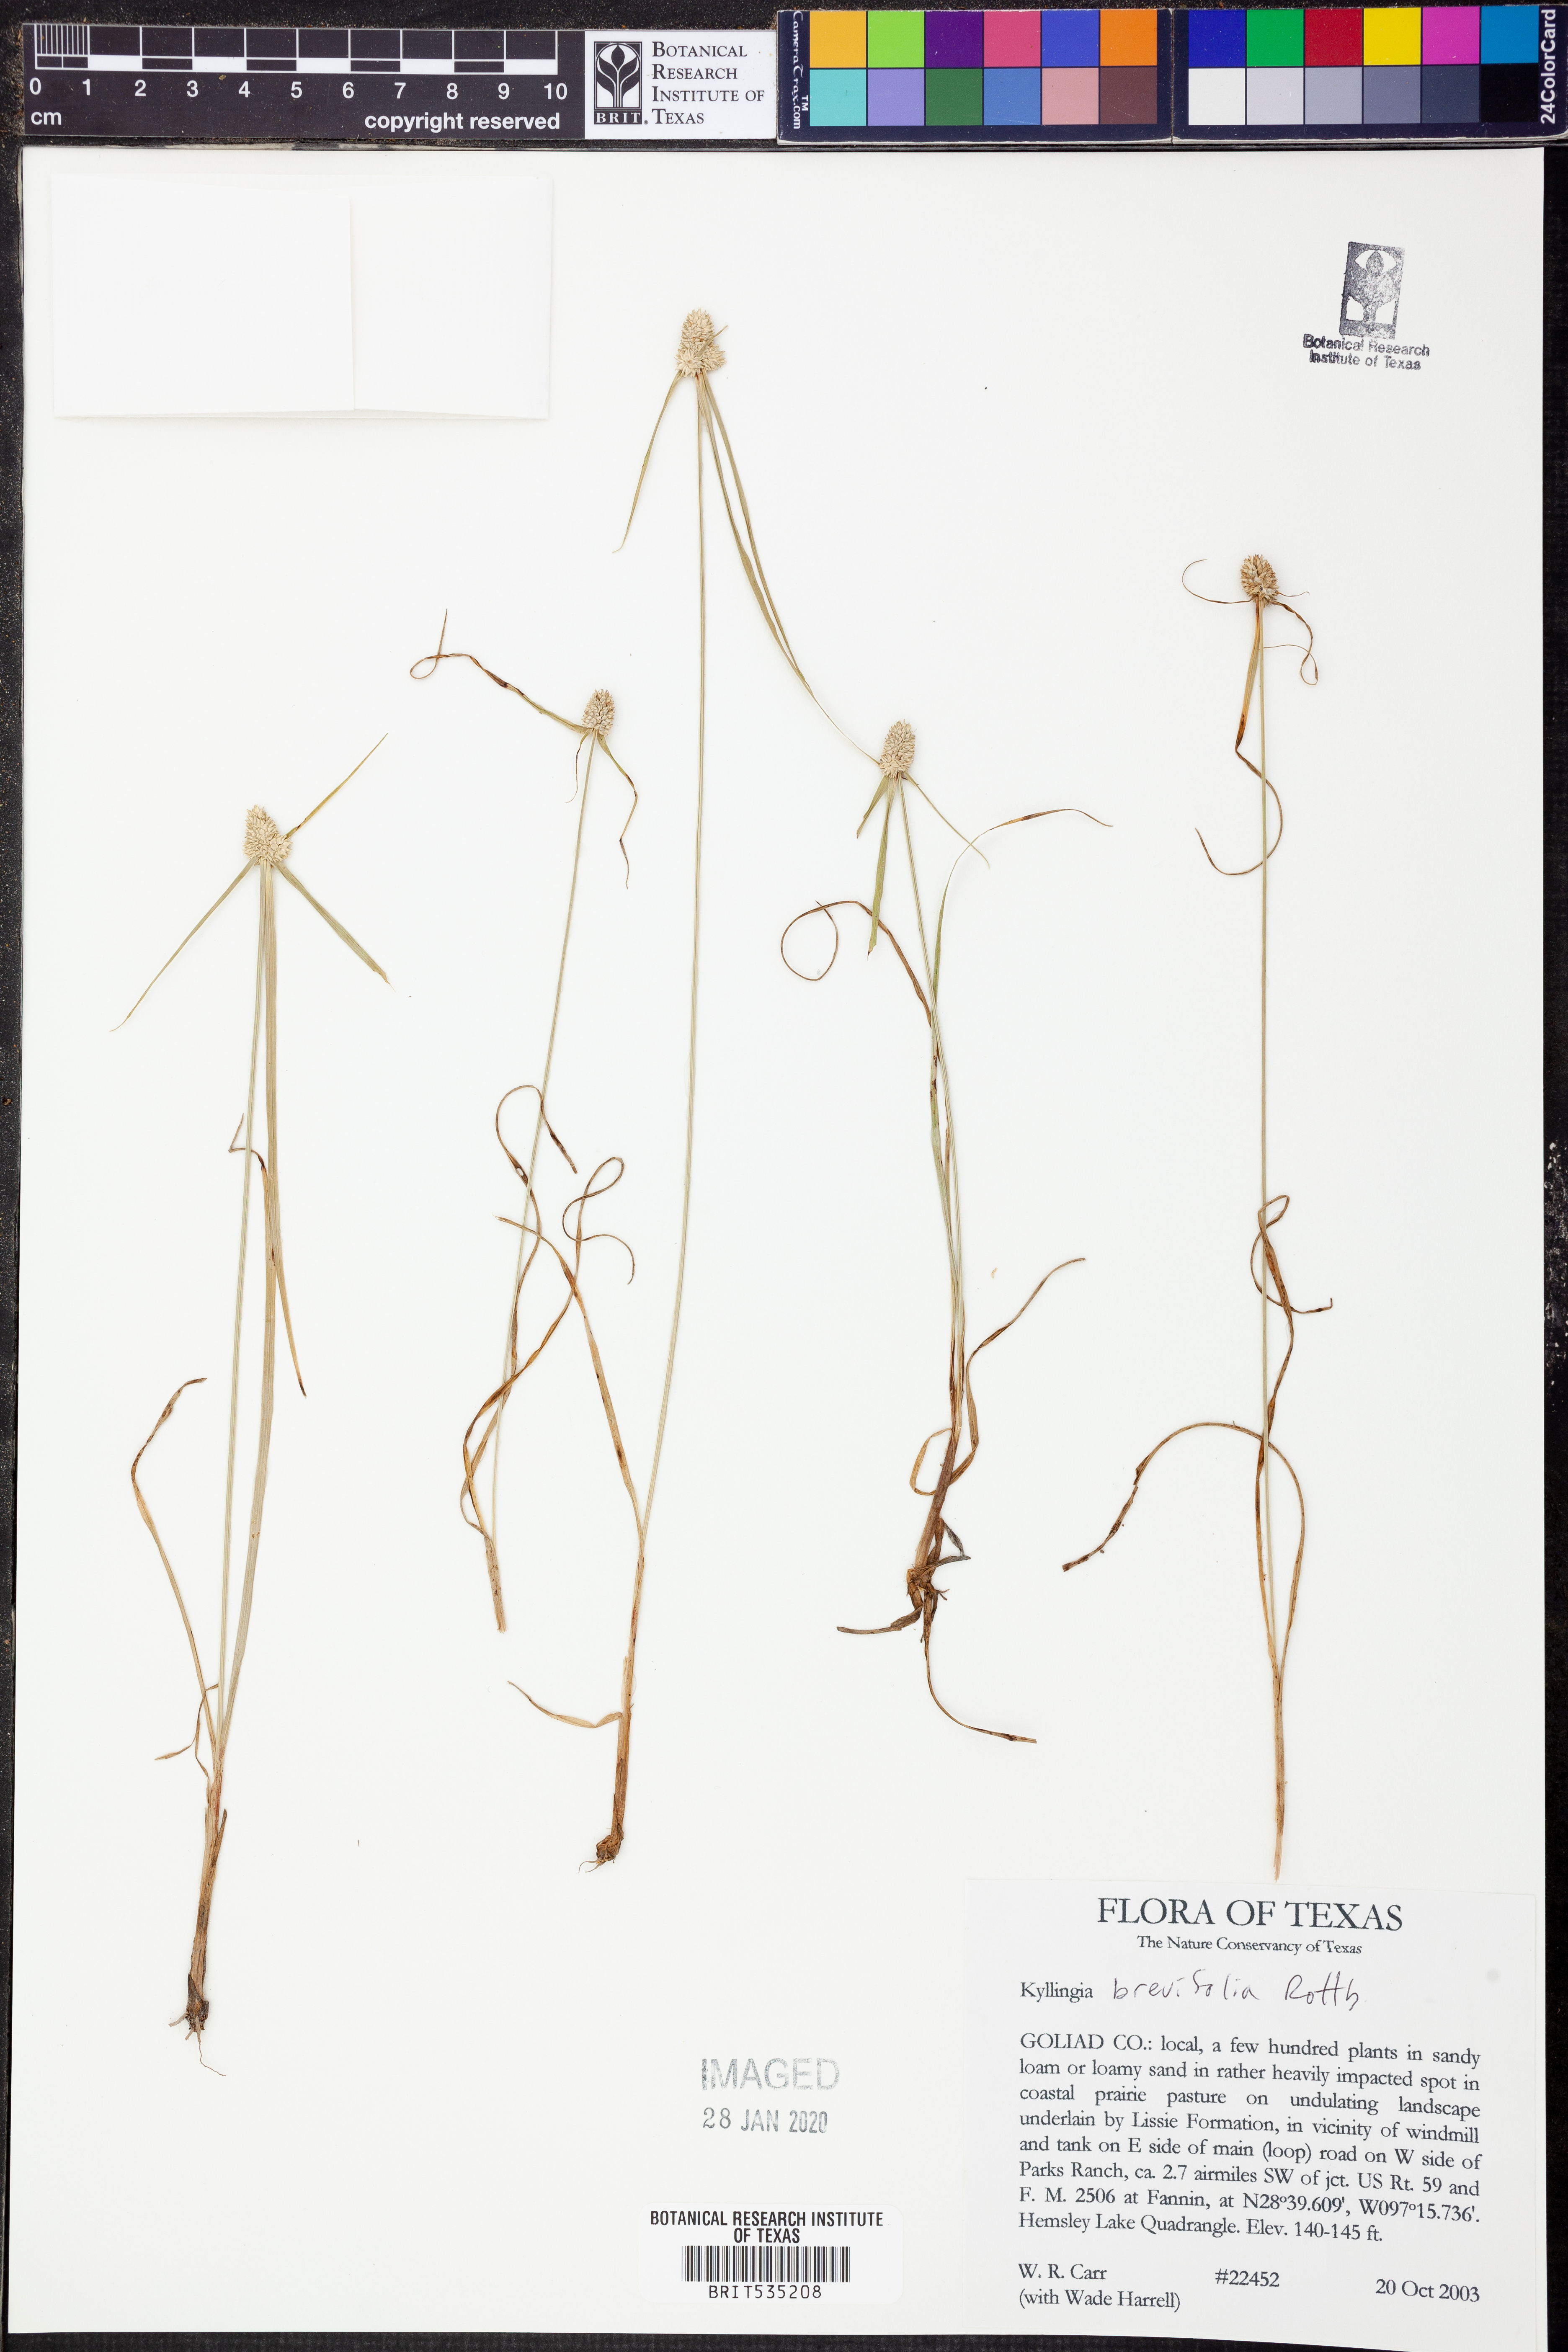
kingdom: Plantae
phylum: Tracheophyta
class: Liliopsida
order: Poales
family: Cyperaceae
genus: Cyperus
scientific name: Cyperus brevifolius
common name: Globe kyllinga
